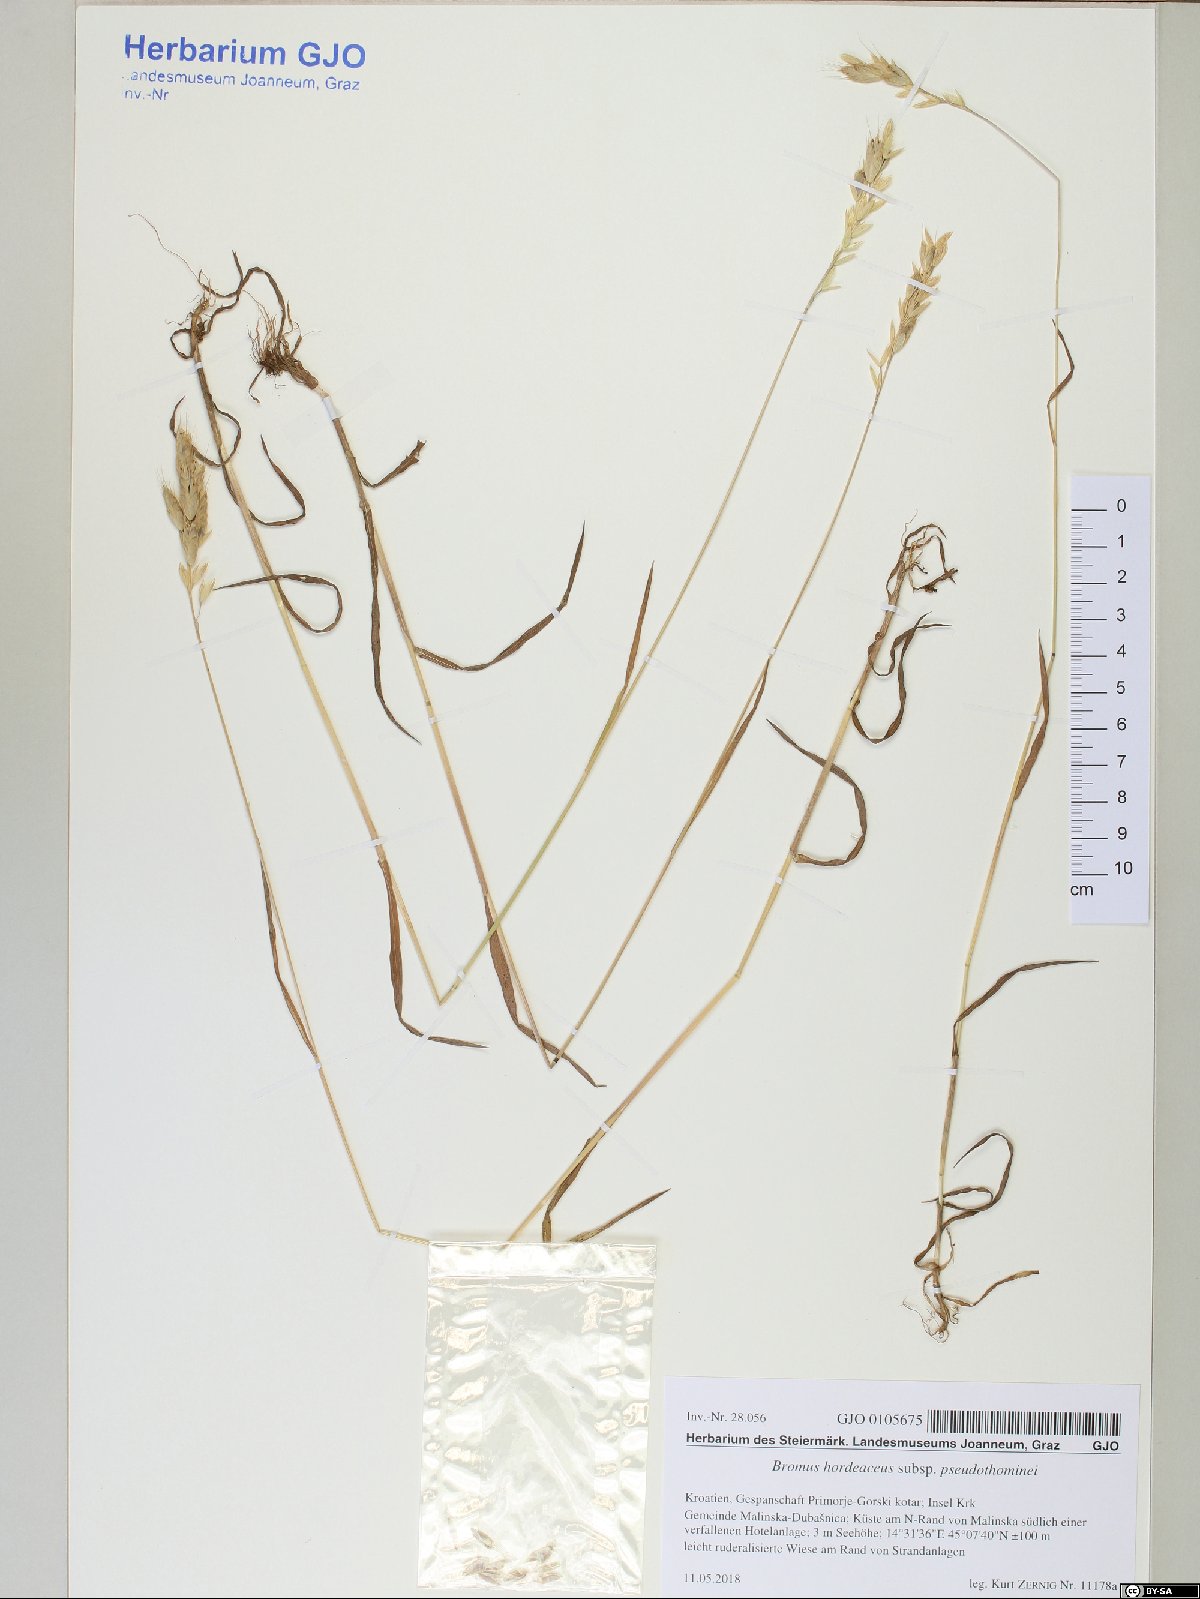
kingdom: Plantae
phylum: Tracheophyta
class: Liliopsida
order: Poales
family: Poaceae
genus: Bromus
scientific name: Bromus ferronii
